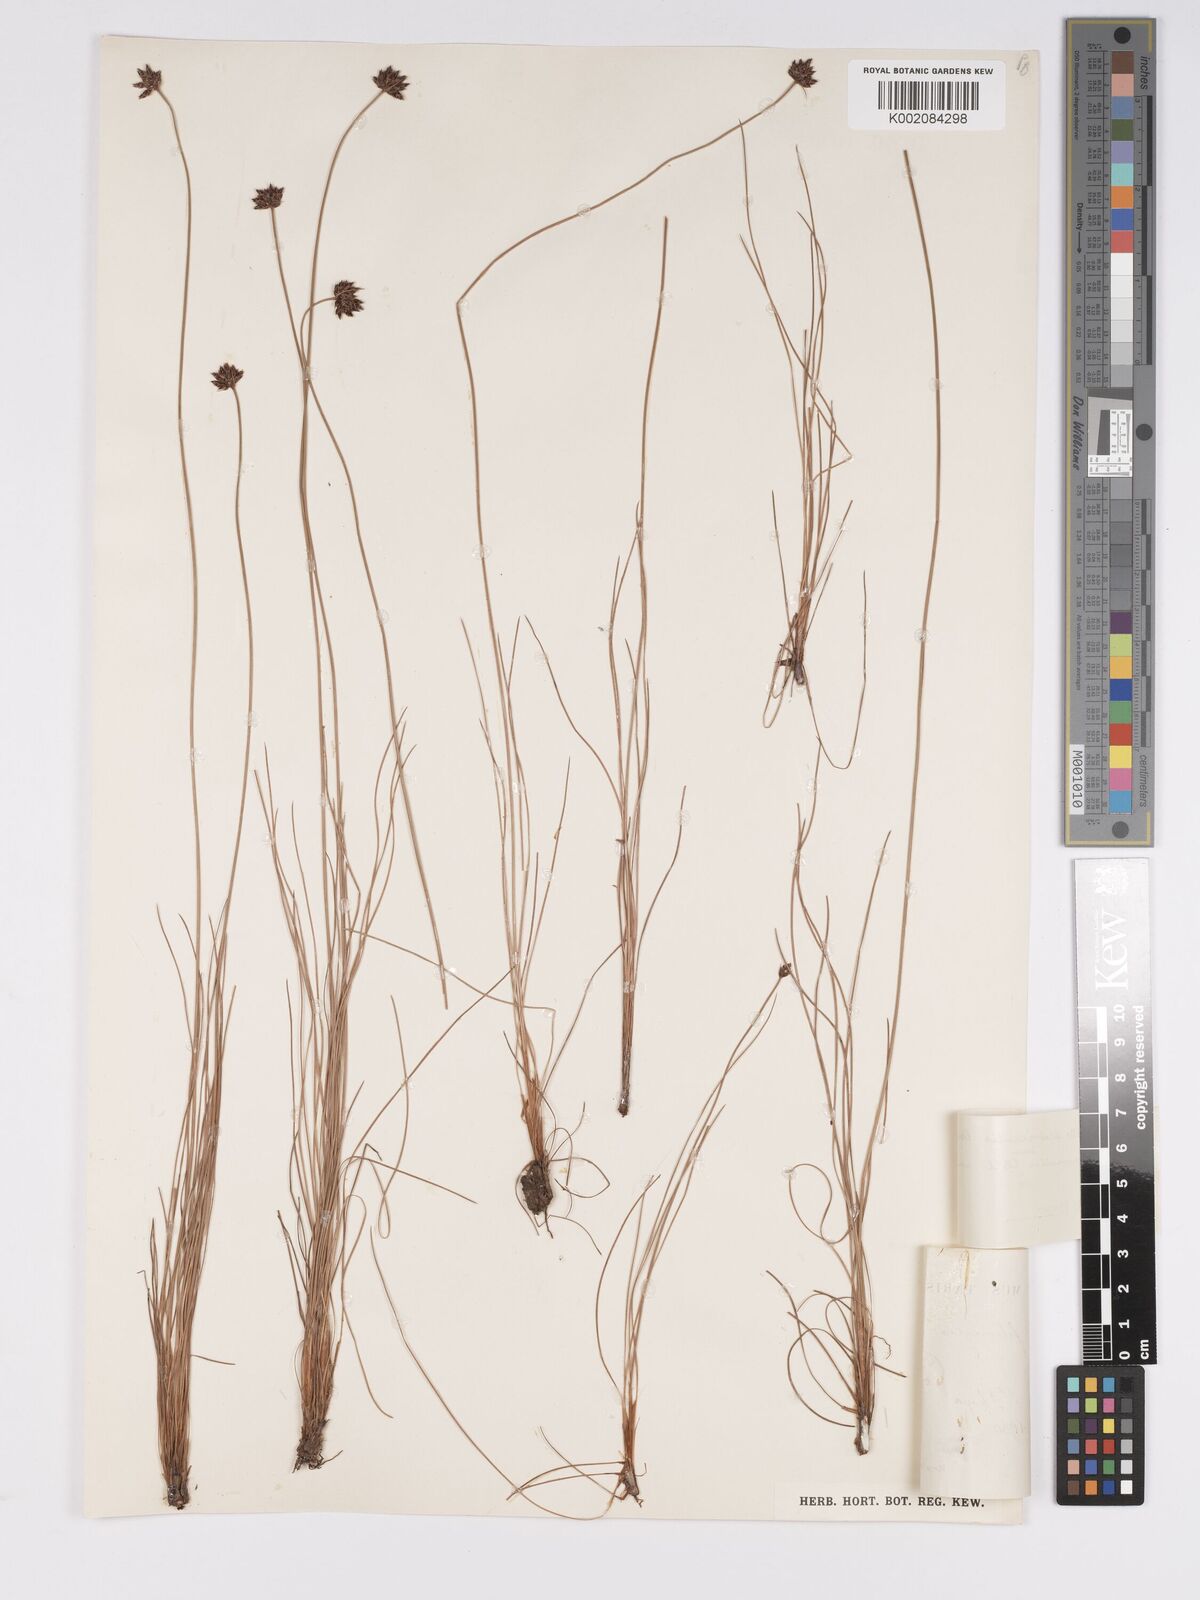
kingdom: Plantae
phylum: Tracheophyta
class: Liliopsida
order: Poales
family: Cyperaceae
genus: Bulbostylis
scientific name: Bulbostylis scabricaulis
